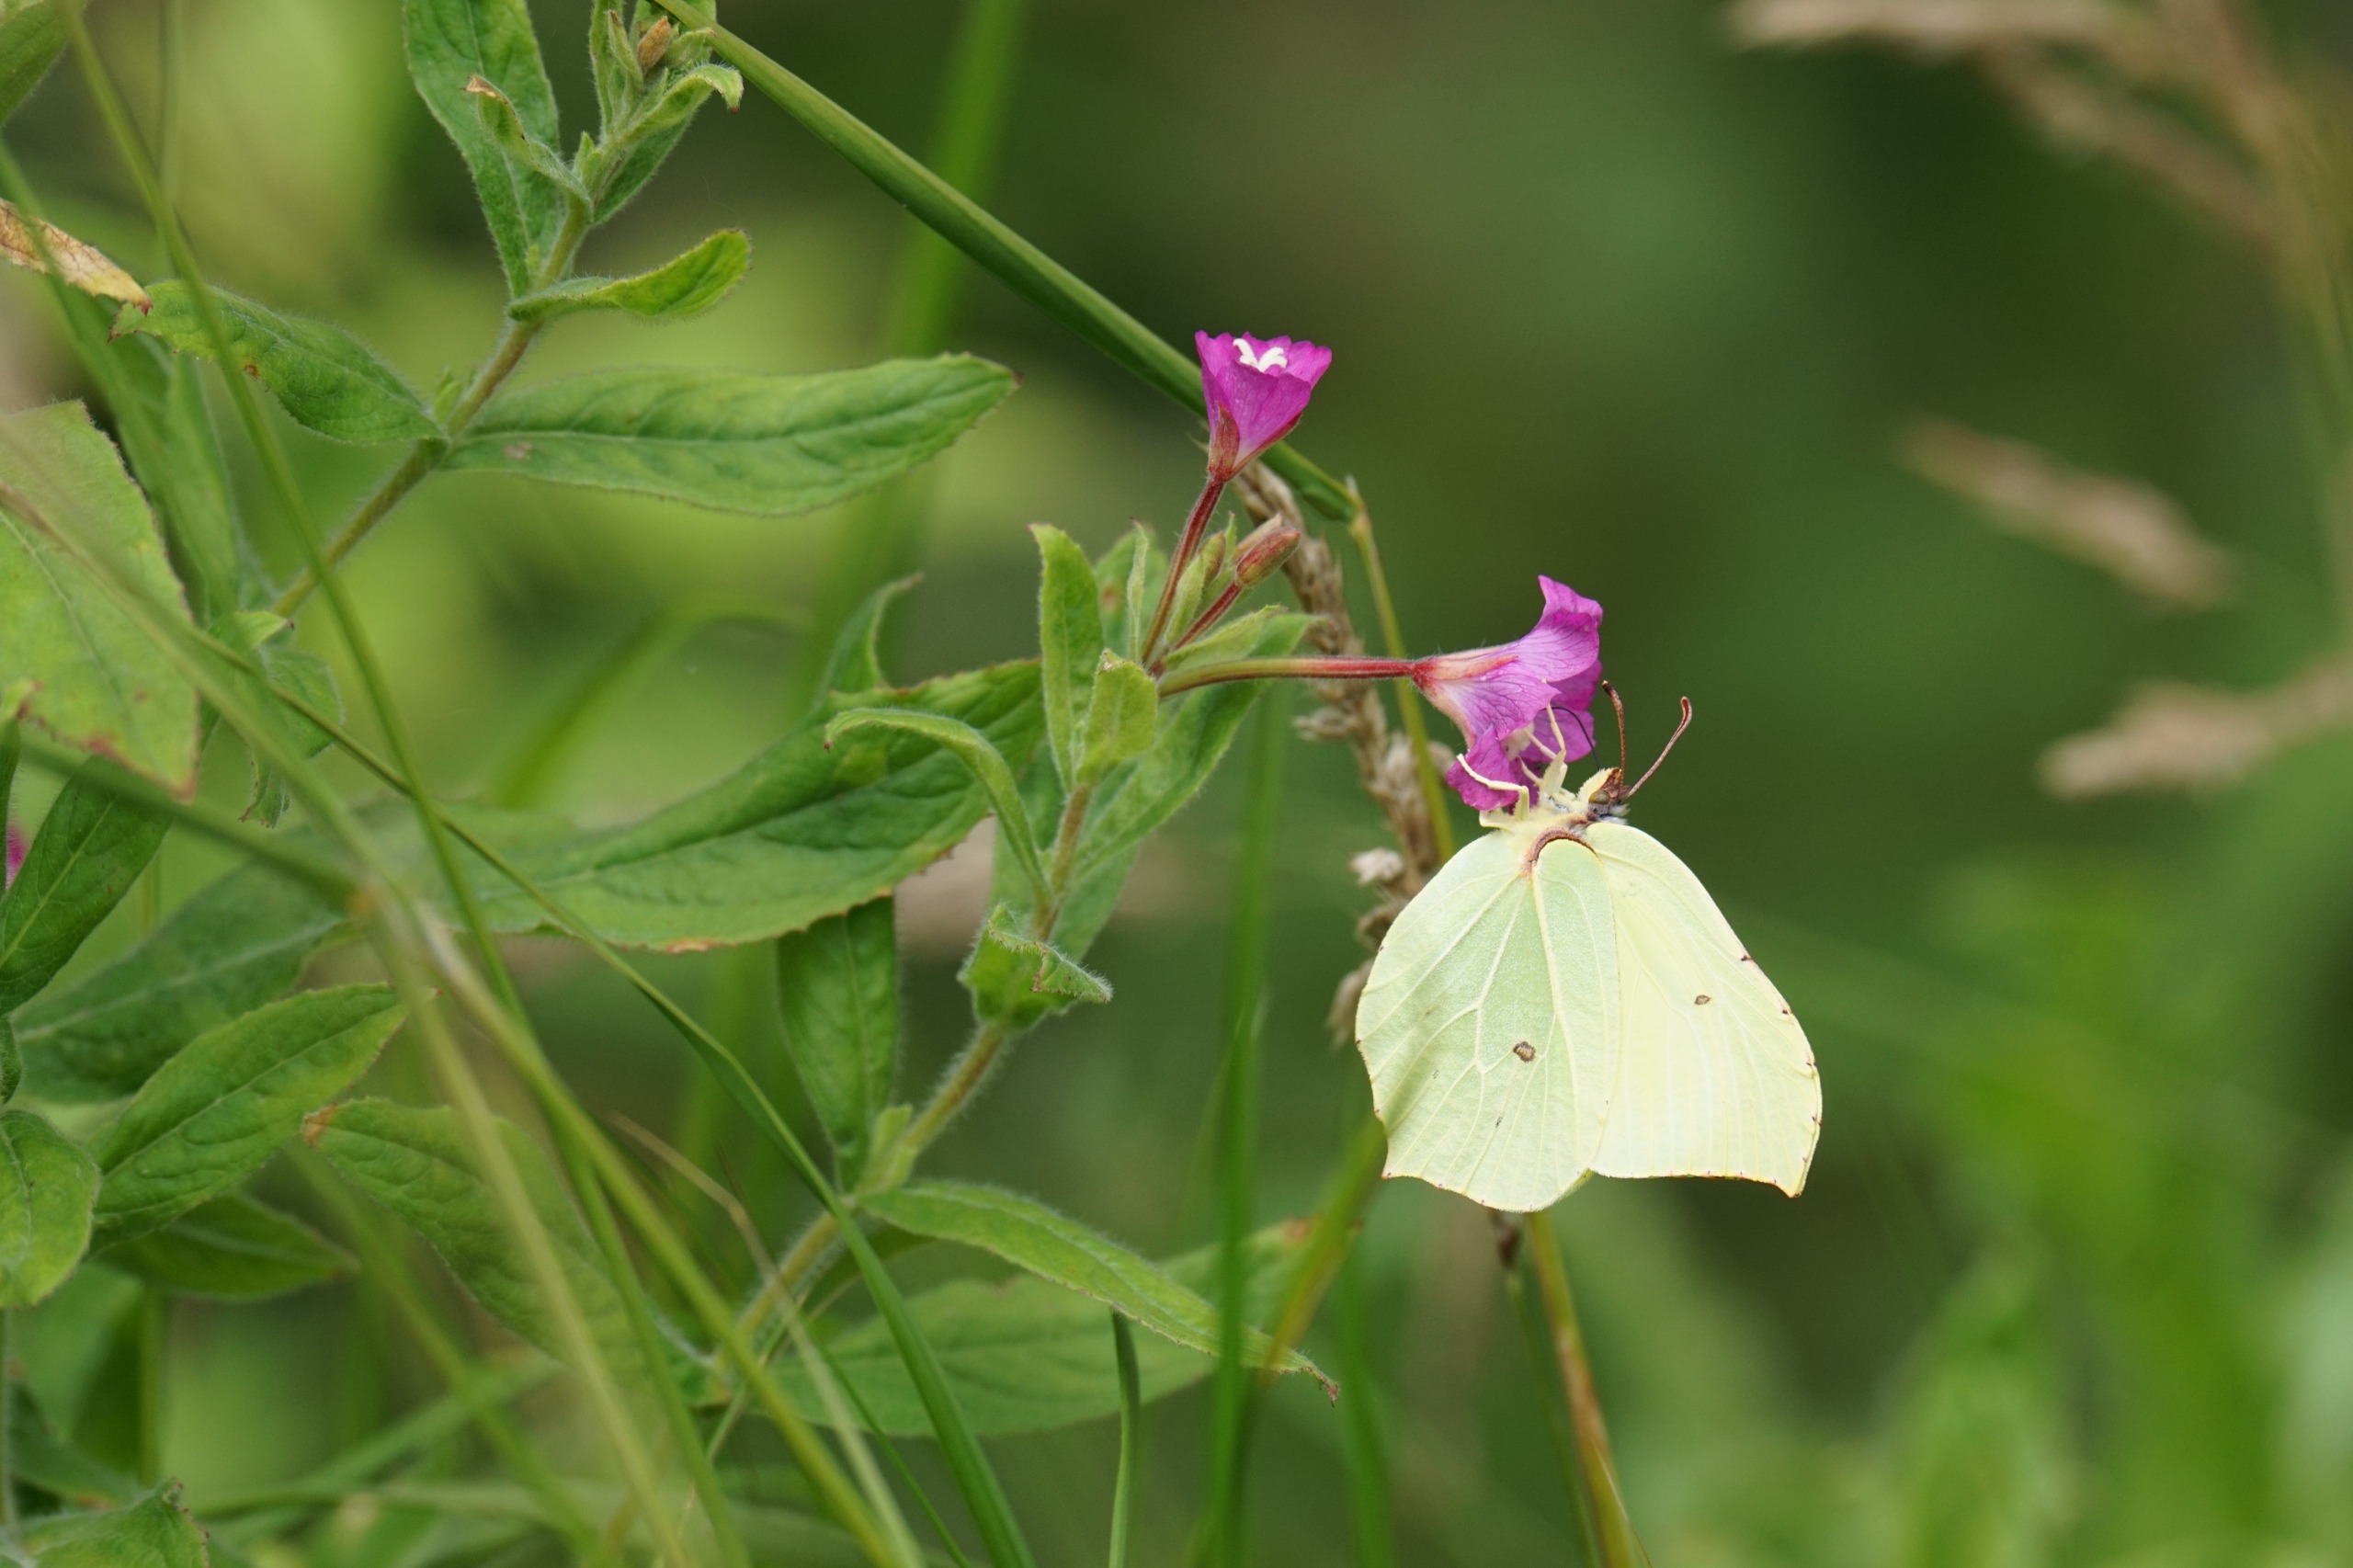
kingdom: Animalia
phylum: Arthropoda
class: Insecta
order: Lepidoptera
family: Pieridae
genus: Gonepteryx
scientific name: Gonepteryx rhamni
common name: Citronsommerfugl
